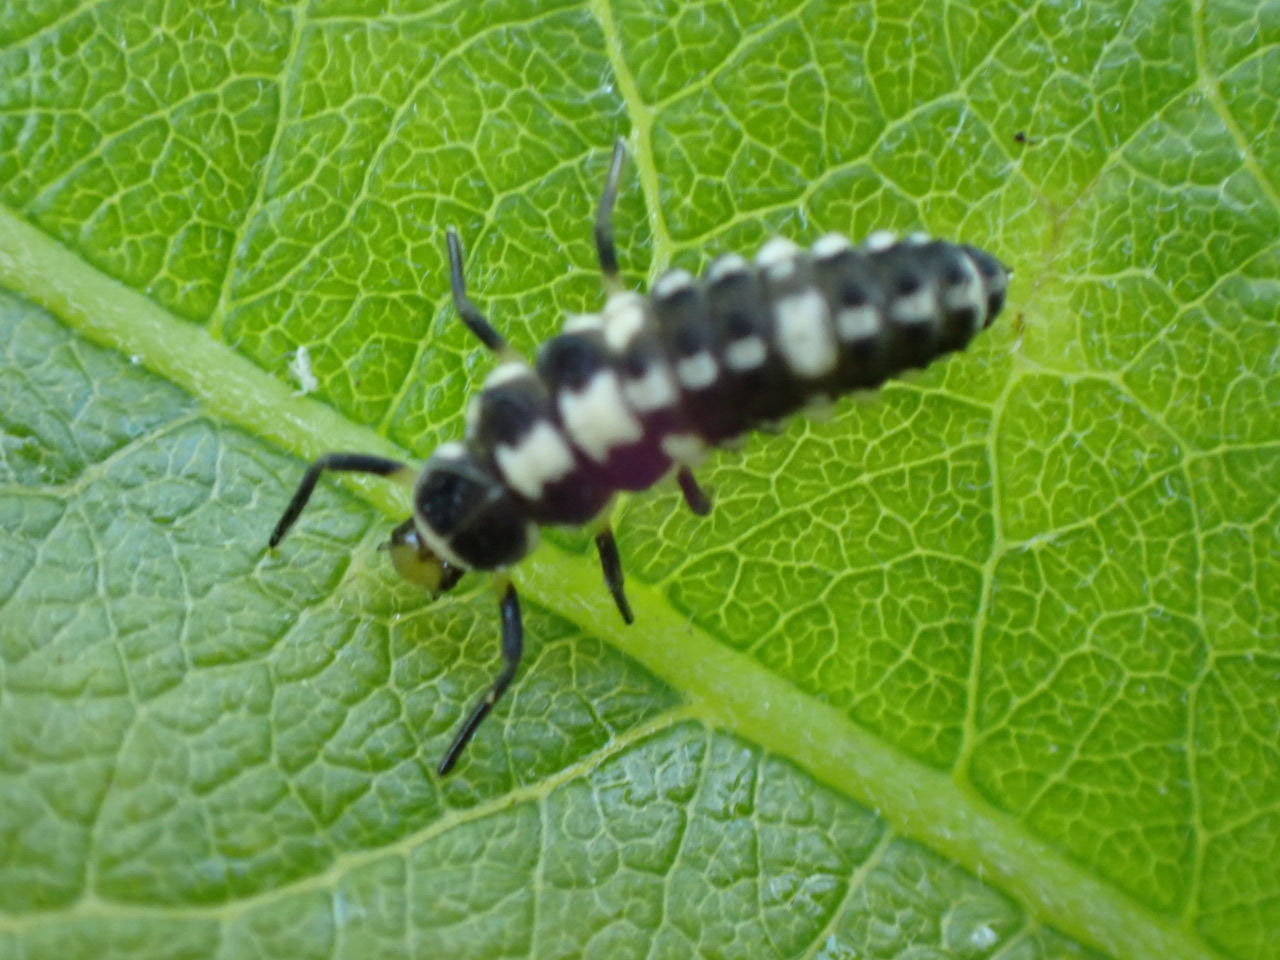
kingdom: Animalia
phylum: Arthropoda
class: Insecta
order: Coleoptera
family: Coccinellidae
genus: Propylaea
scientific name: Propylaea quatuordecimpunctata
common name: Skakbræt
